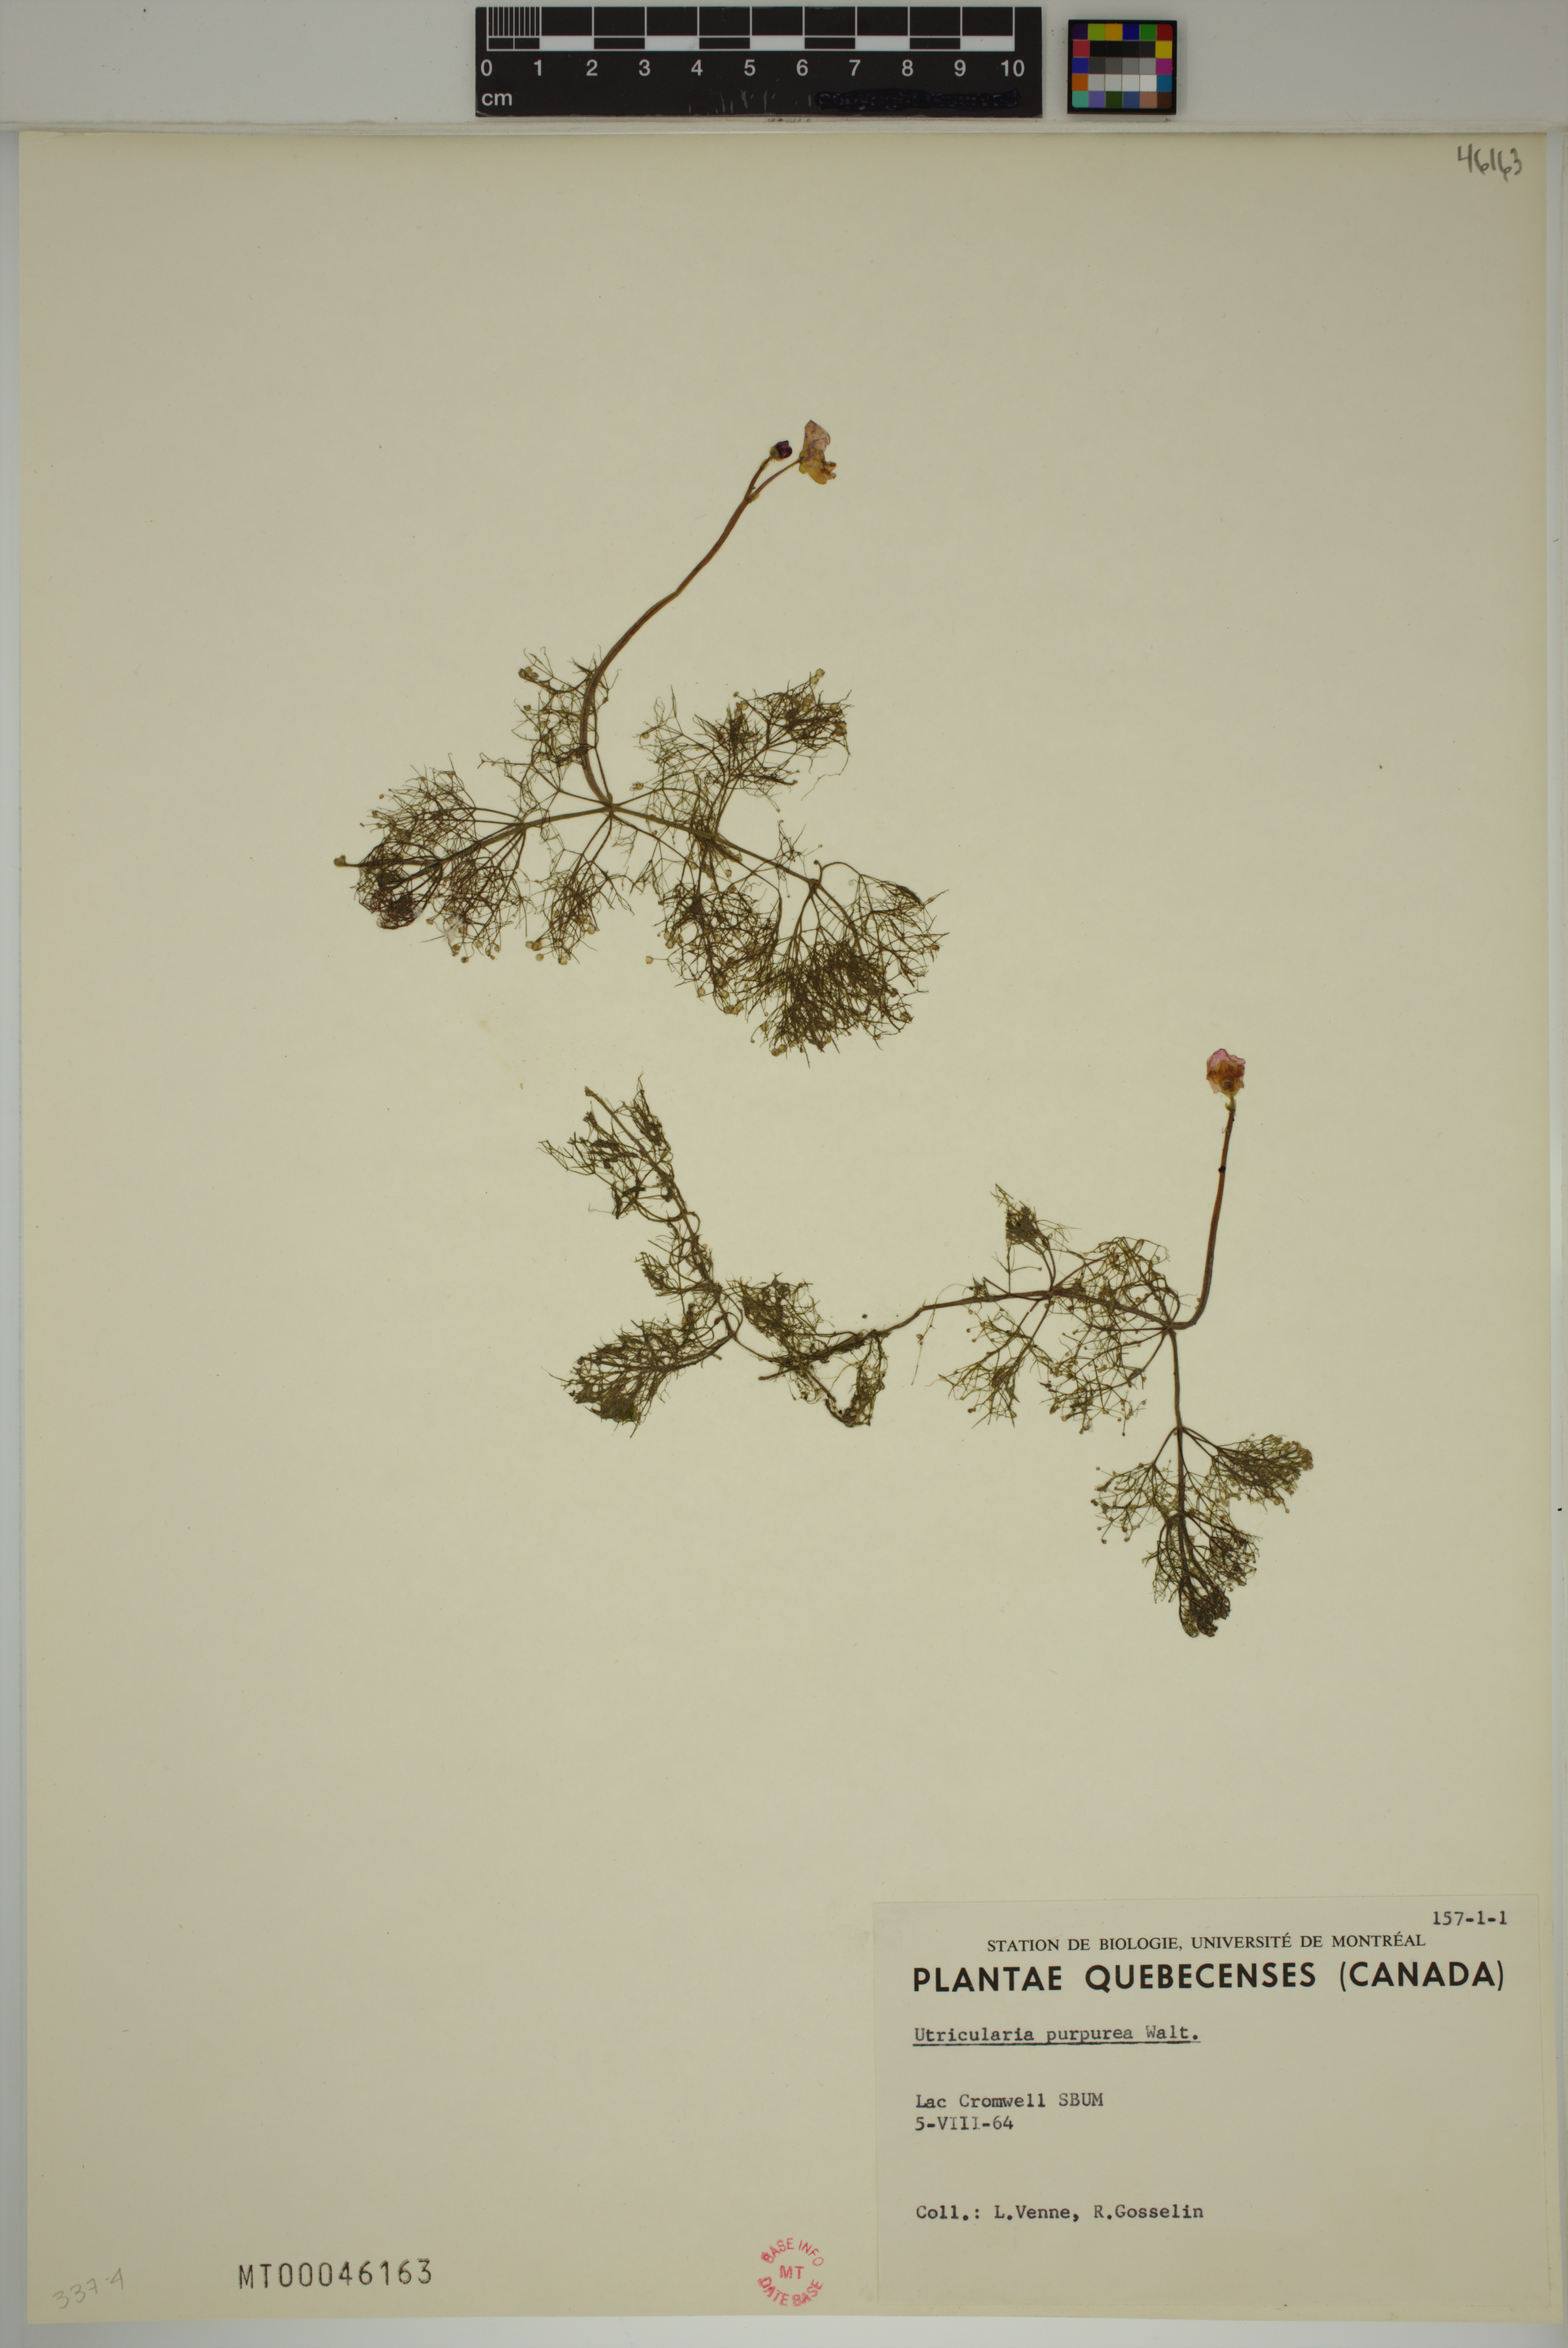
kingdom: Plantae
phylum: Tracheophyta
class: Magnoliopsida
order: Lamiales
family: Lentibulariaceae
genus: Utricularia
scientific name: Utricularia purpurea
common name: Eastern purple bladderwort
